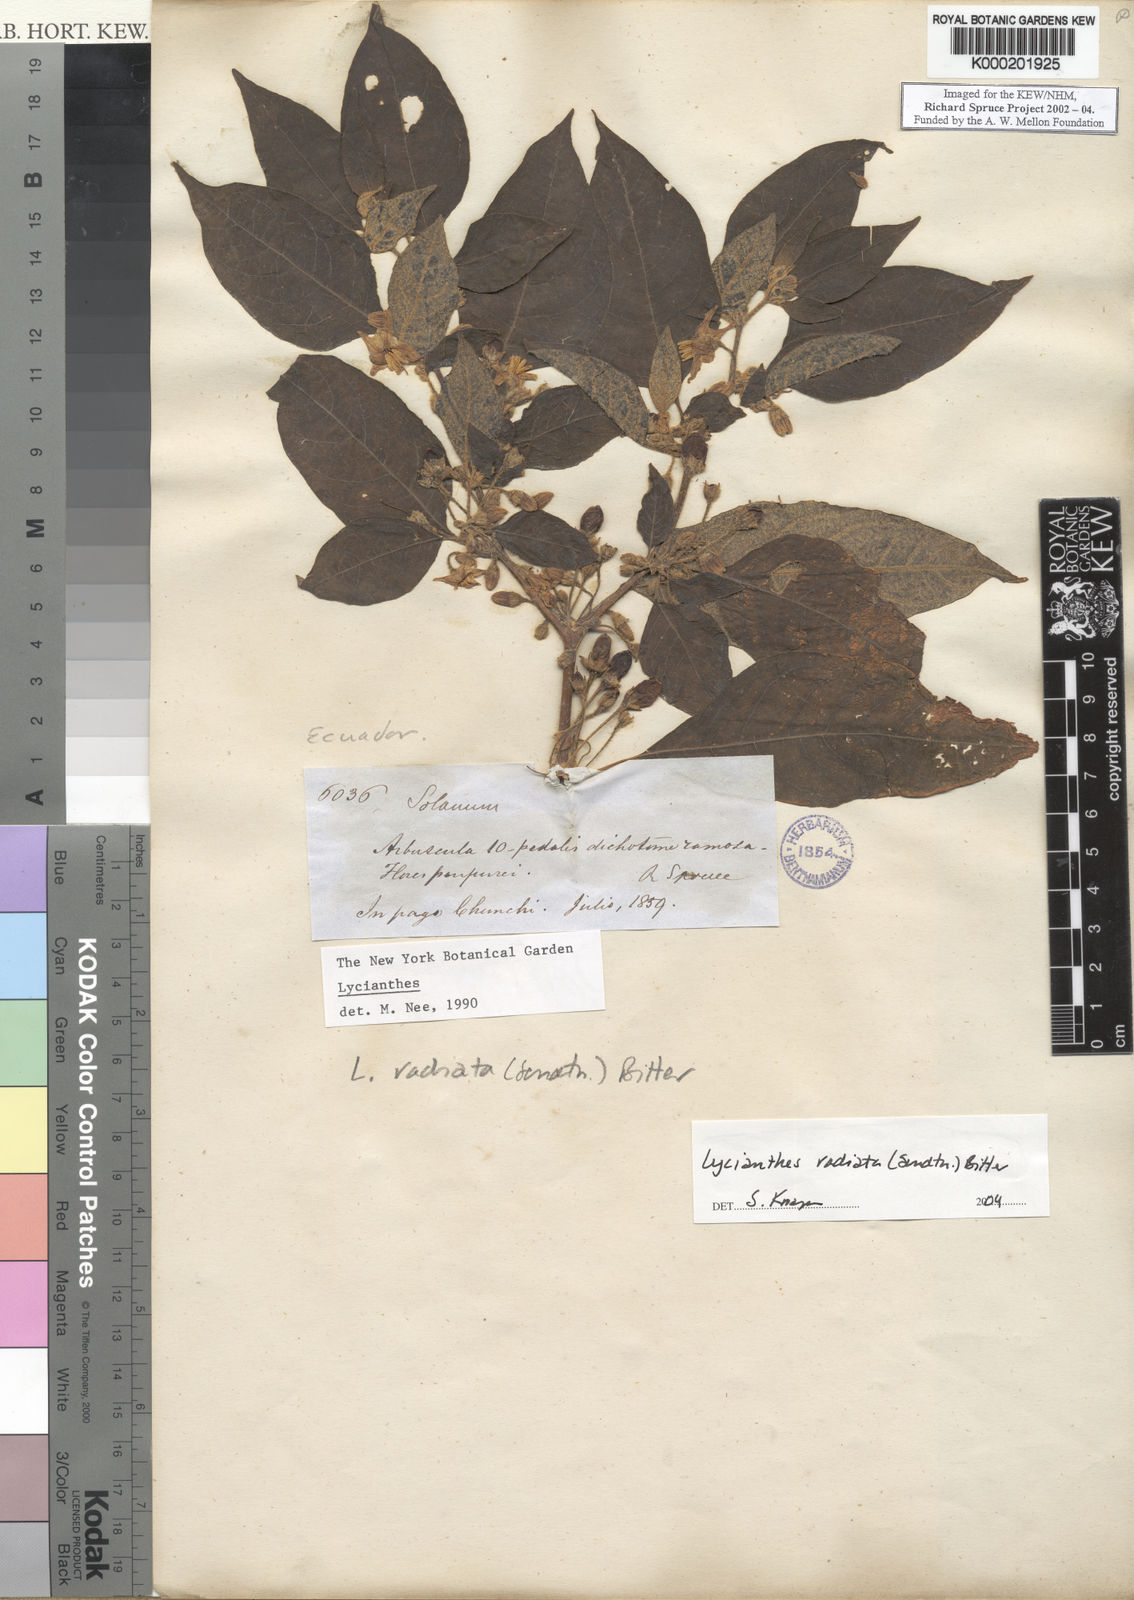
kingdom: Plantae
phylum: Tracheophyta
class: Magnoliopsida
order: Solanales
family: Solanaceae
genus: Lycianthes
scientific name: Lycianthes radiata
